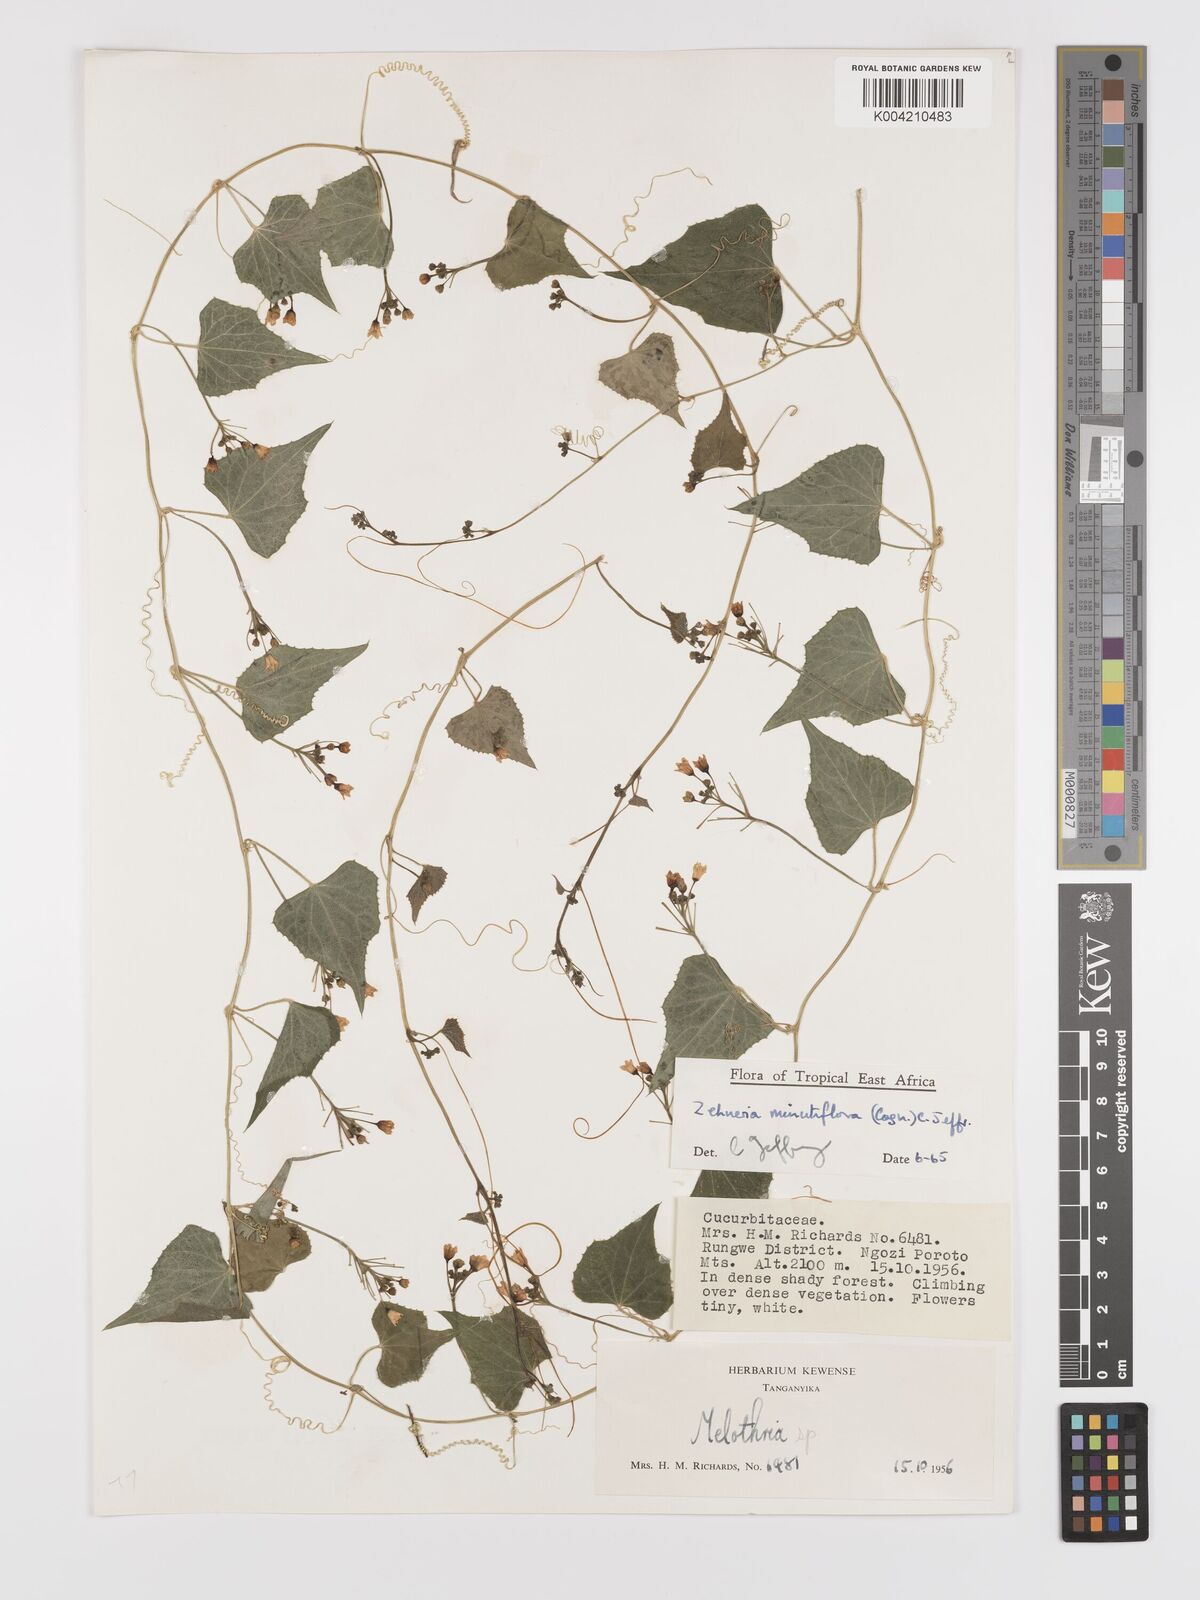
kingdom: Plantae
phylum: Tracheophyta
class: Magnoliopsida
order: Cucurbitales
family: Cucurbitaceae
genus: Zehneria
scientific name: Zehneria minutiflora
